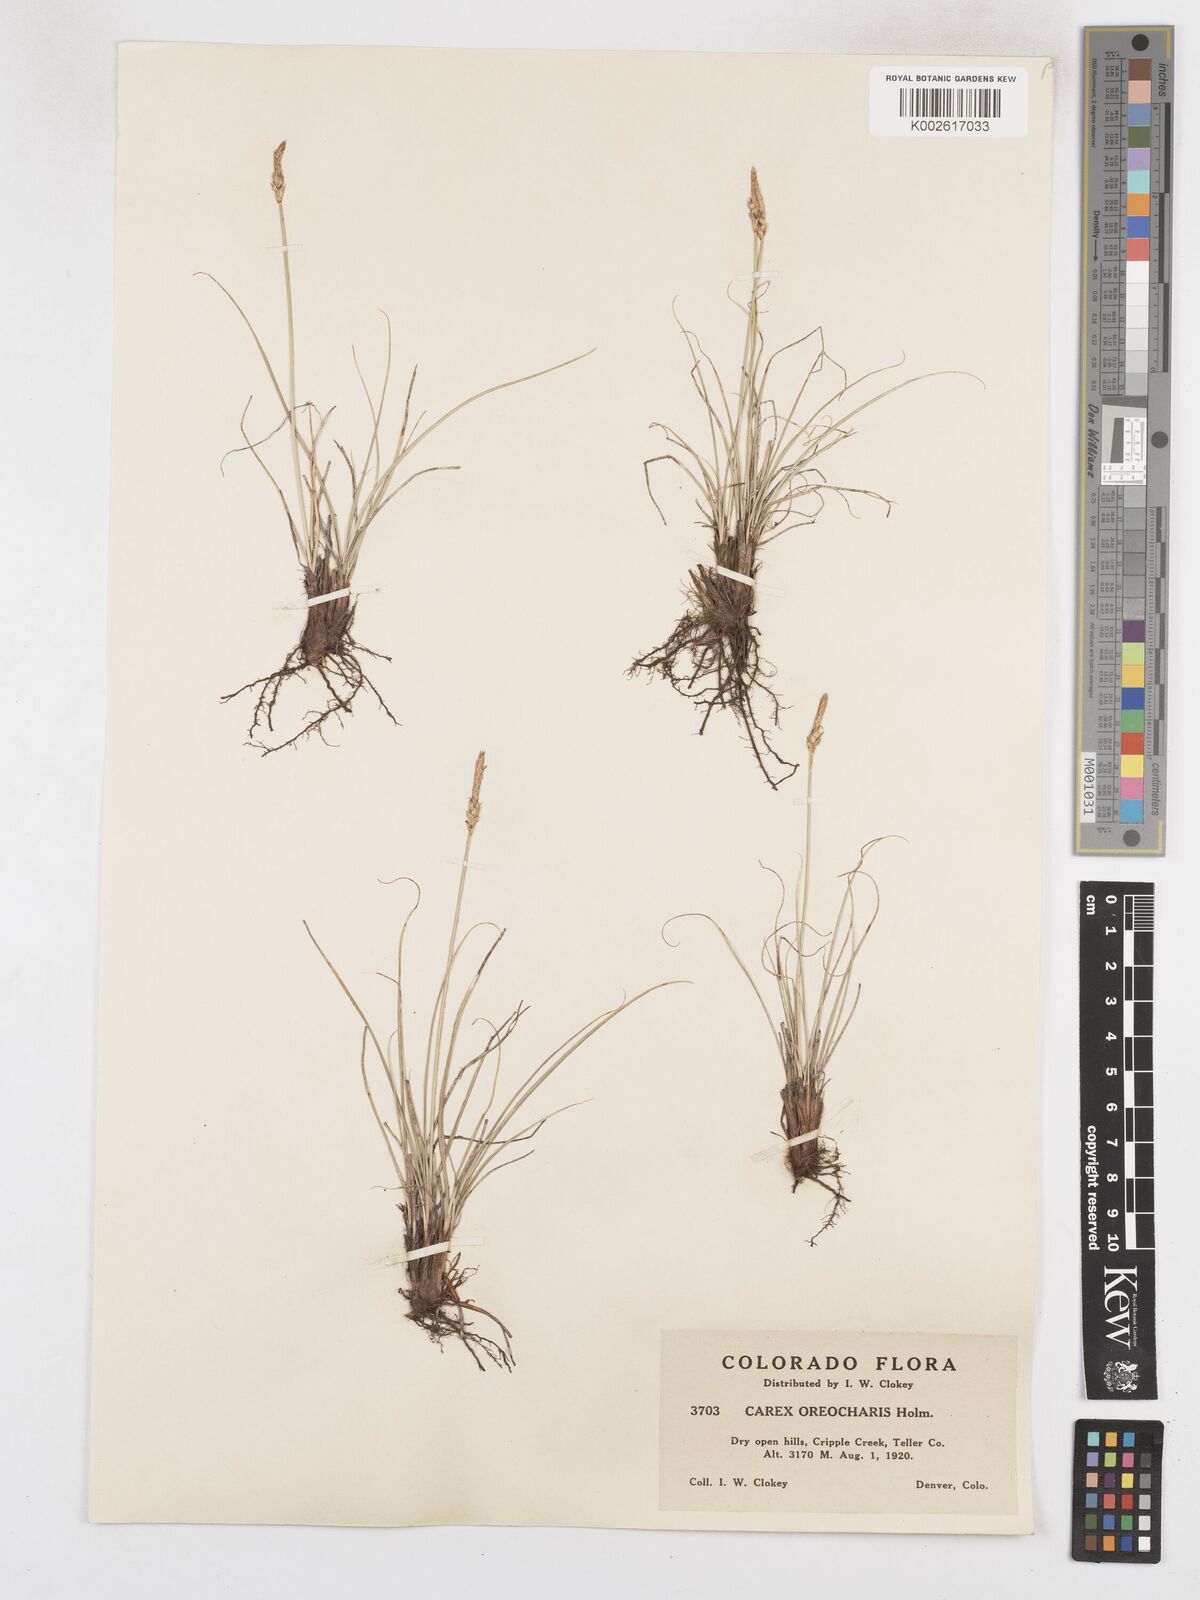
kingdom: Plantae
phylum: Tracheophyta
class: Liliopsida
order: Poales
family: Cyperaceae
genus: Carex
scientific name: Carex oreocharis
